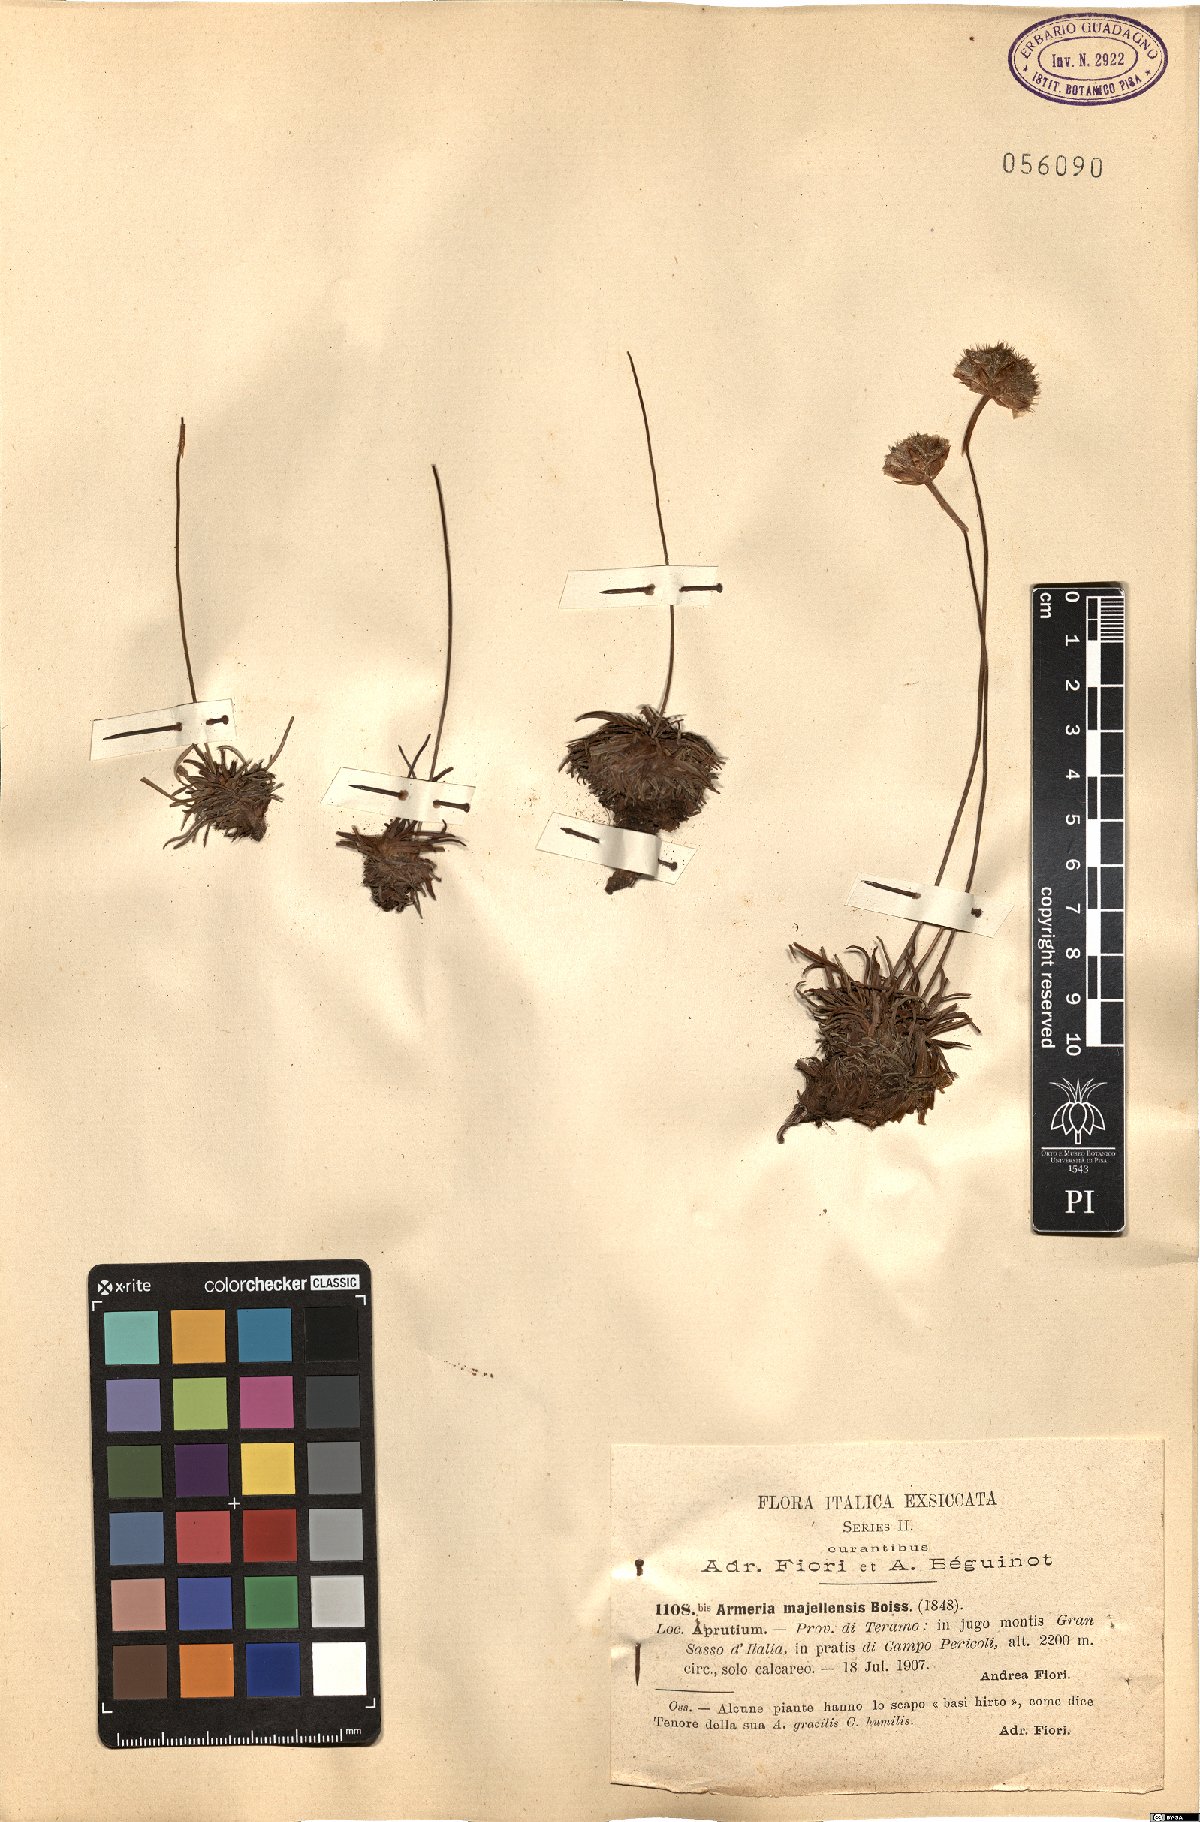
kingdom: Plantae
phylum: Tracheophyta
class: Magnoliopsida
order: Caryophyllales
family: Plumbaginaceae
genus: Armeria
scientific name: Armeria nebrodensis
